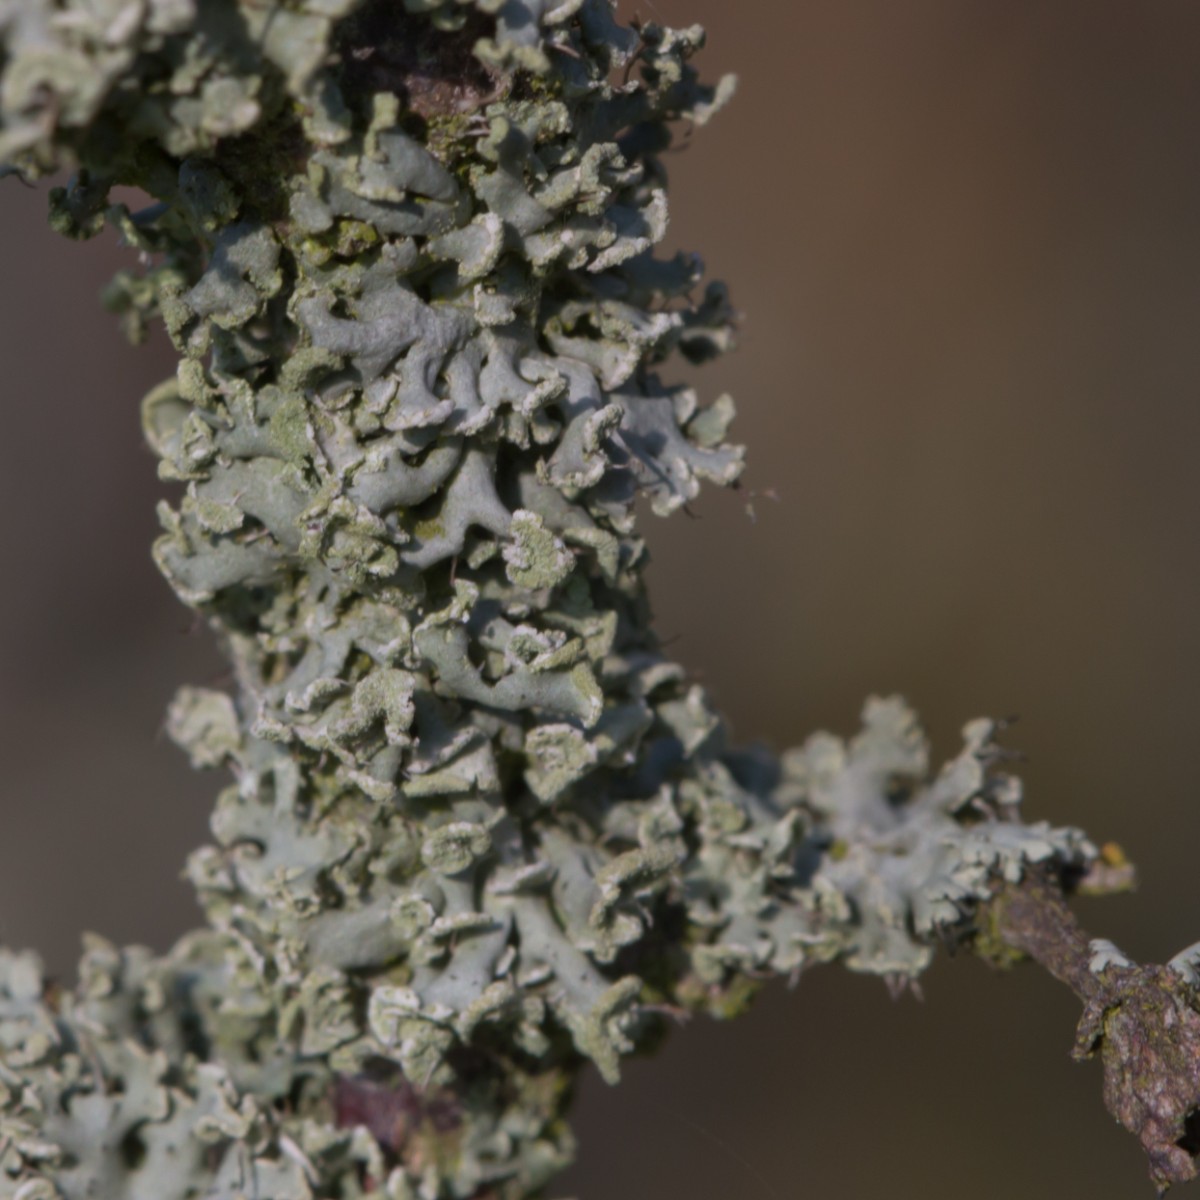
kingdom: Fungi
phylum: Ascomycota
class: Lecanoromycetes
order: Caliciales
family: Physciaceae
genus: Physcia
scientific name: Physcia tenella
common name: spæd rosetlav
